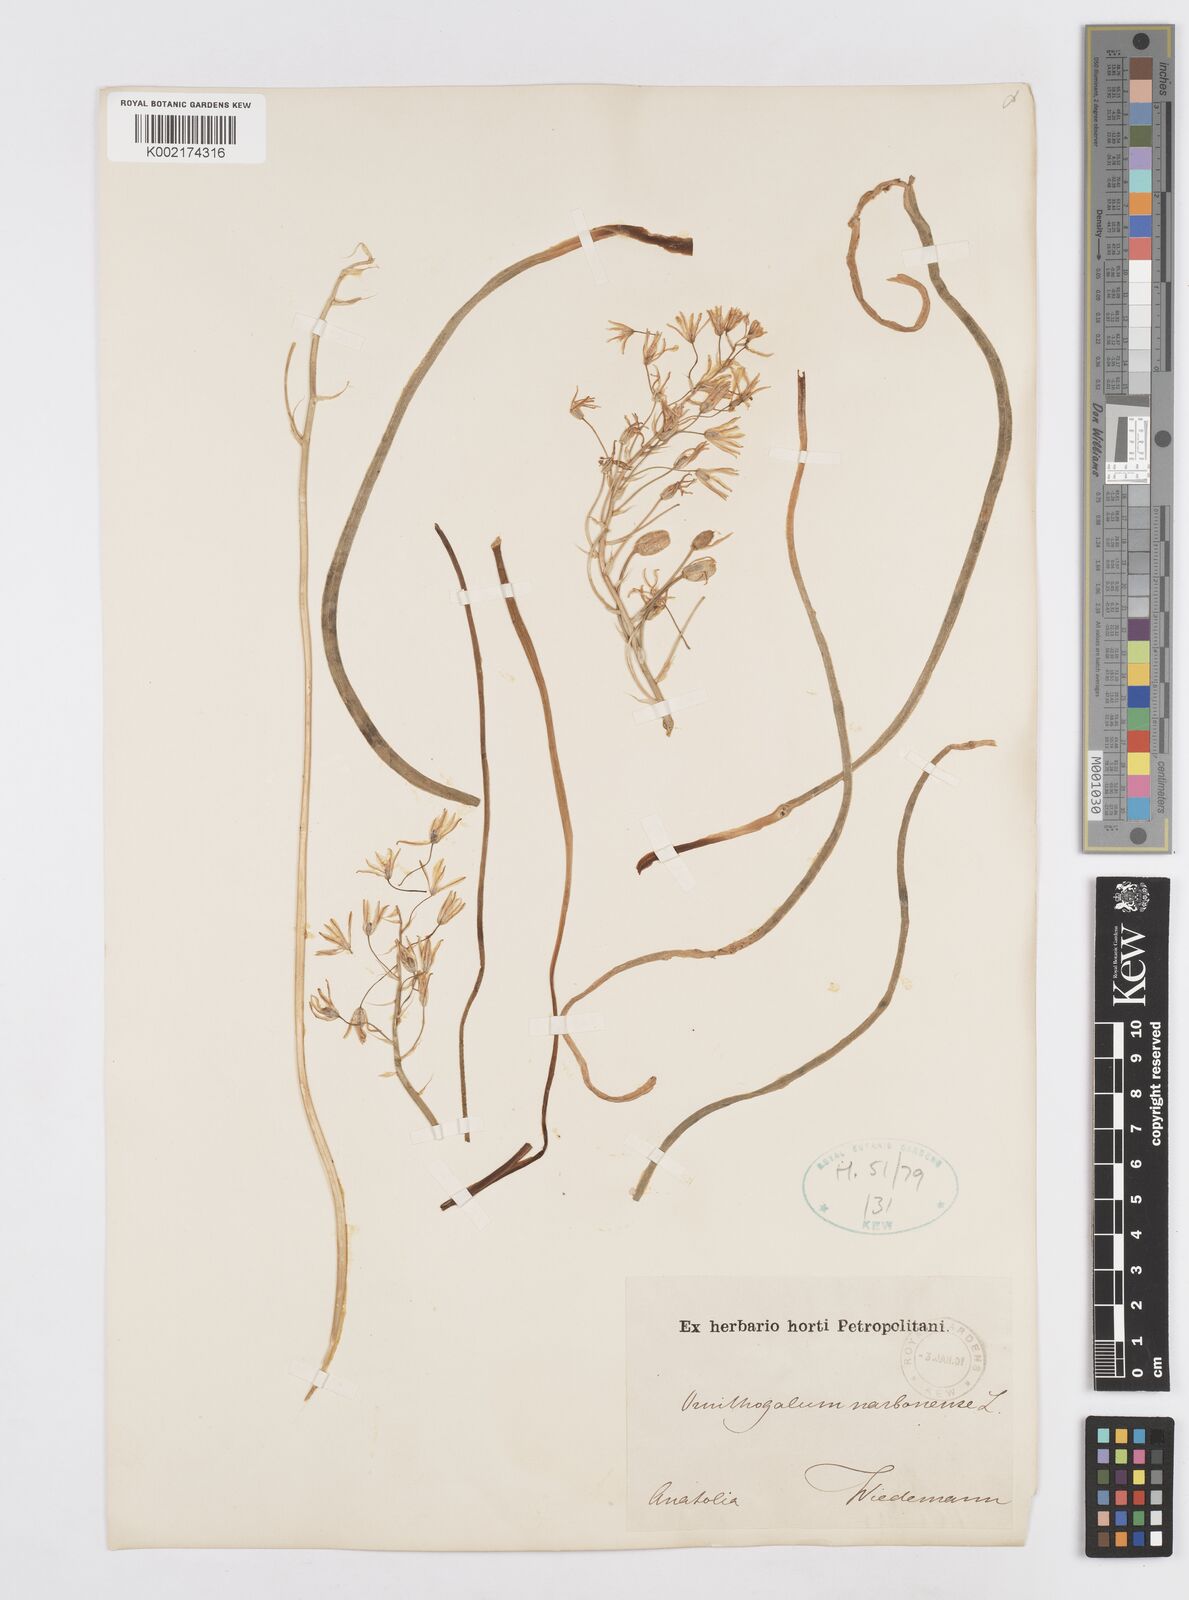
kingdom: Plantae
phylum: Tracheophyta
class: Liliopsida
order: Asparagales
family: Asparagaceae
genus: Ornithogalum
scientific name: Ornithogalum narbonense
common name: Bath-asparagus
